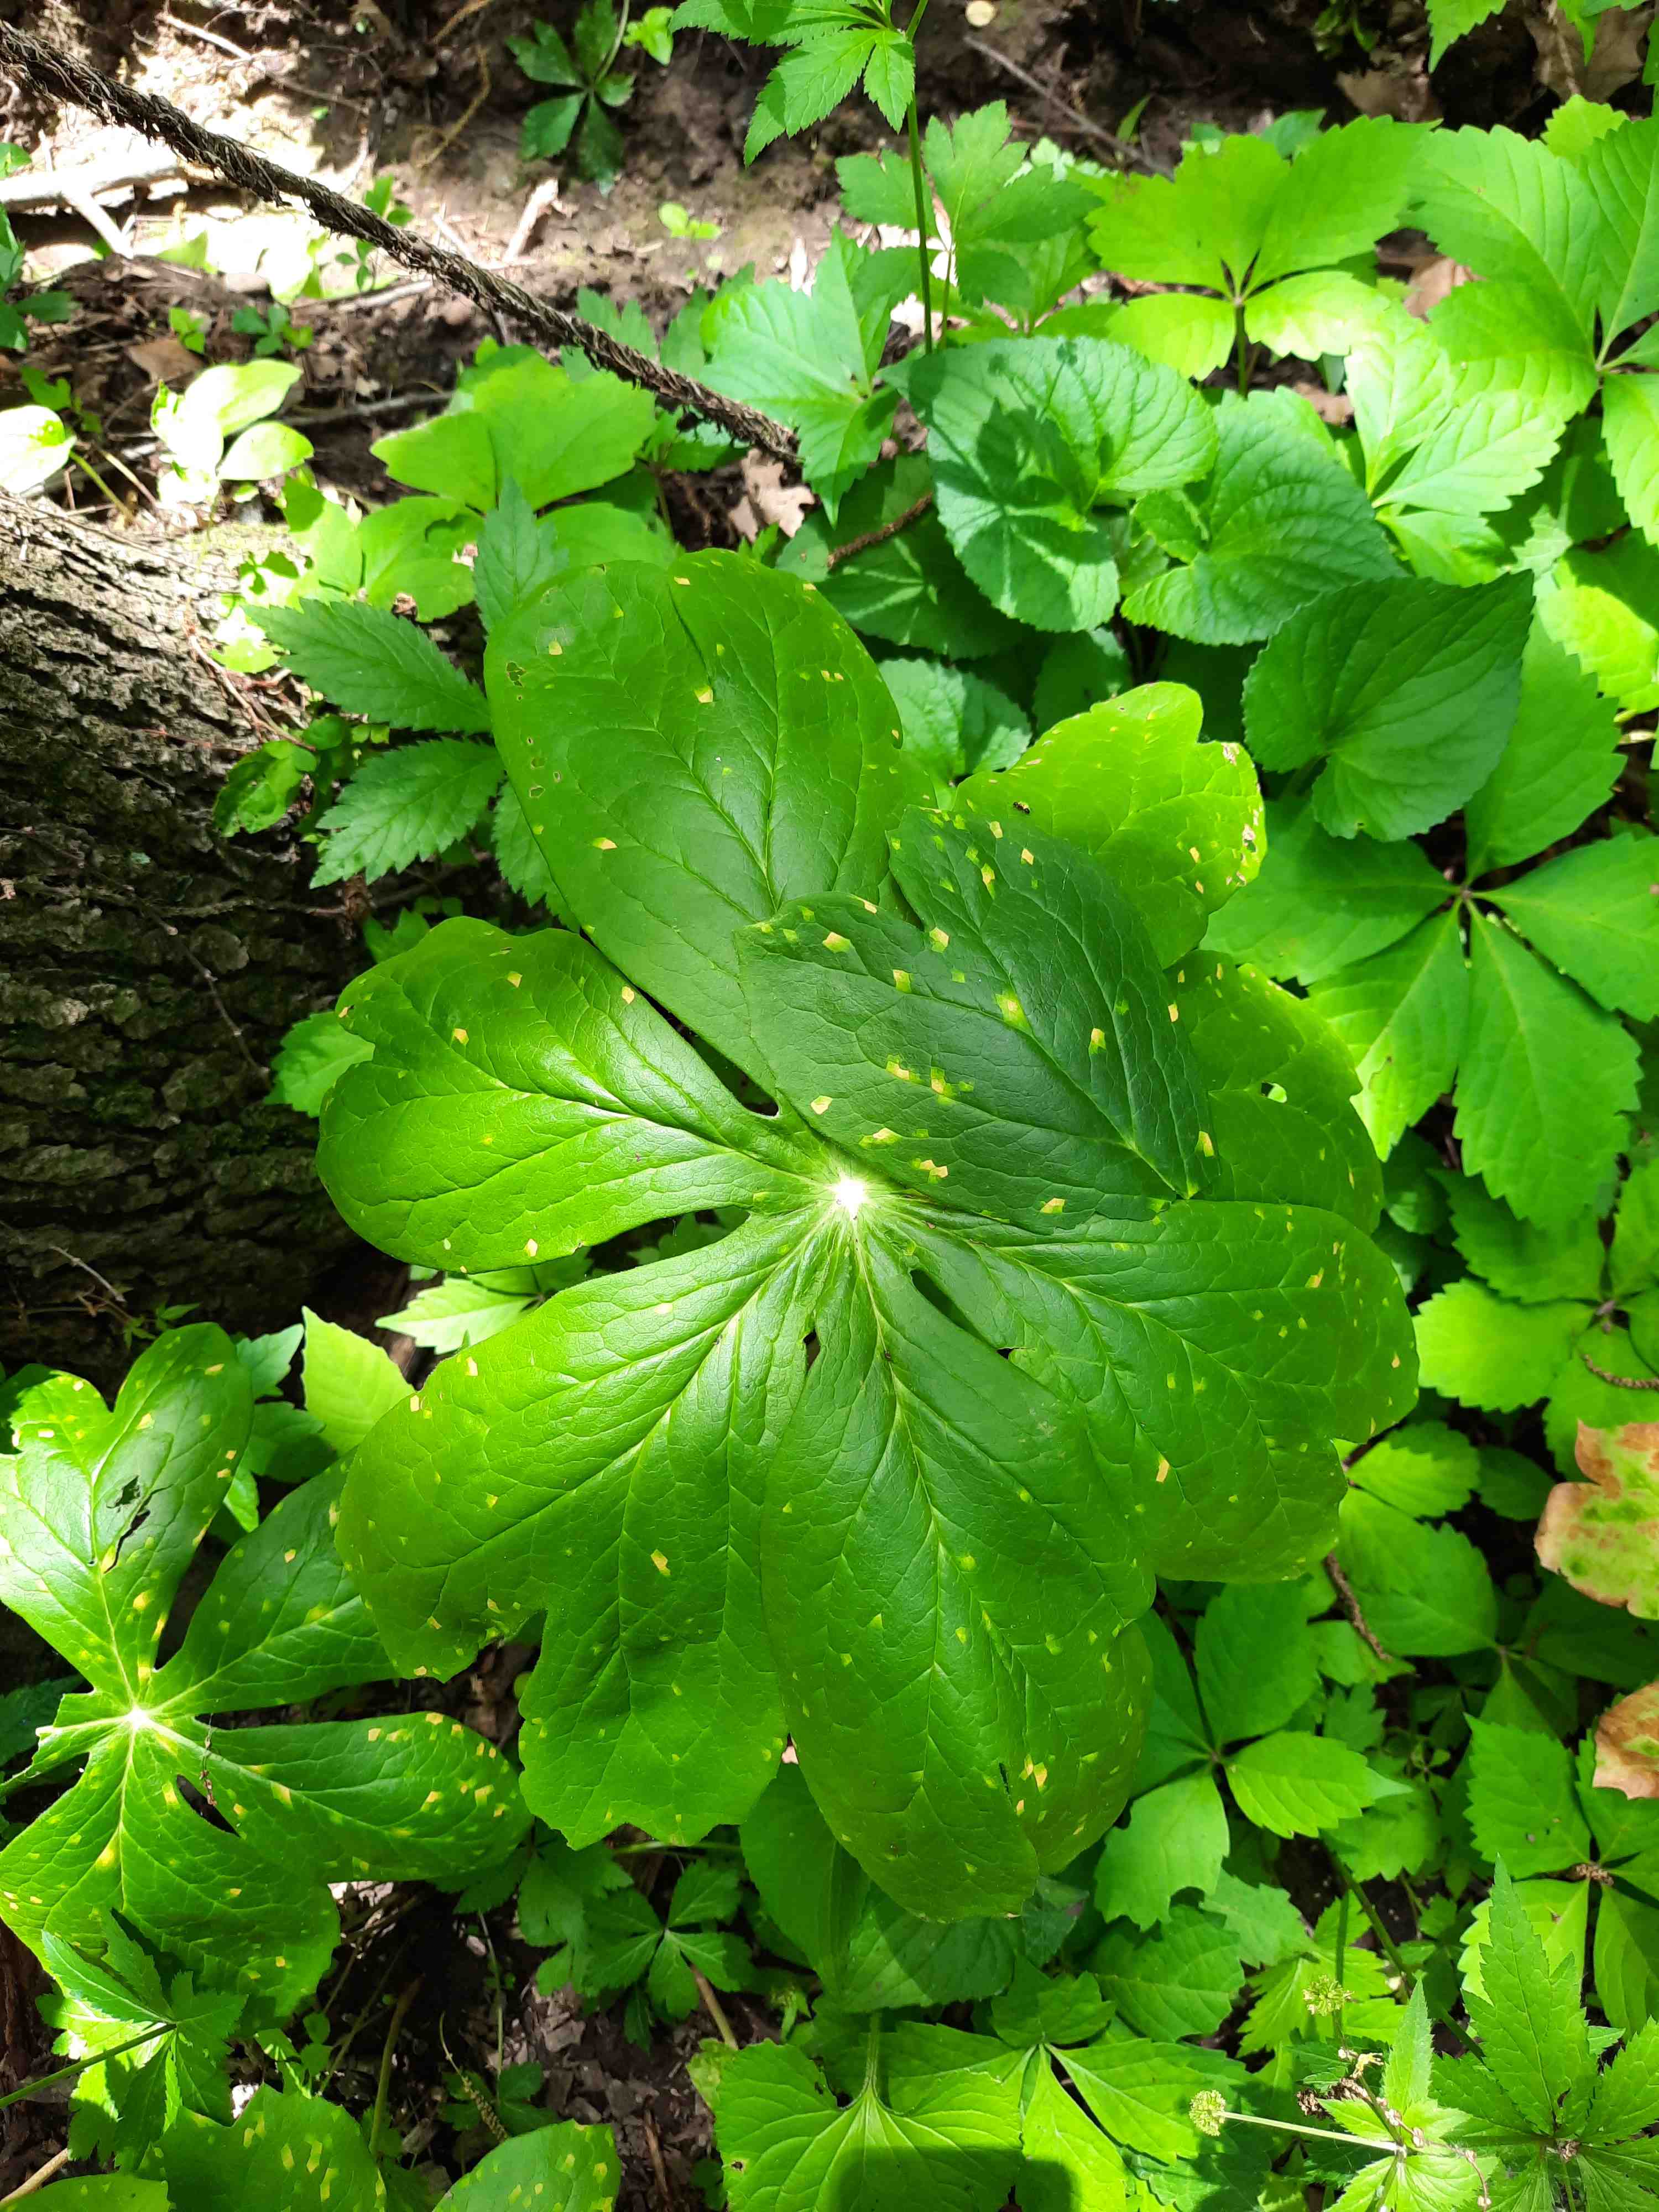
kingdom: Fungi
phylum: Basidiomycota
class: Pucciniomycetes
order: Pucciniales
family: Pucciniaceae
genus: Puccinia
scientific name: Puccinia podophylli
